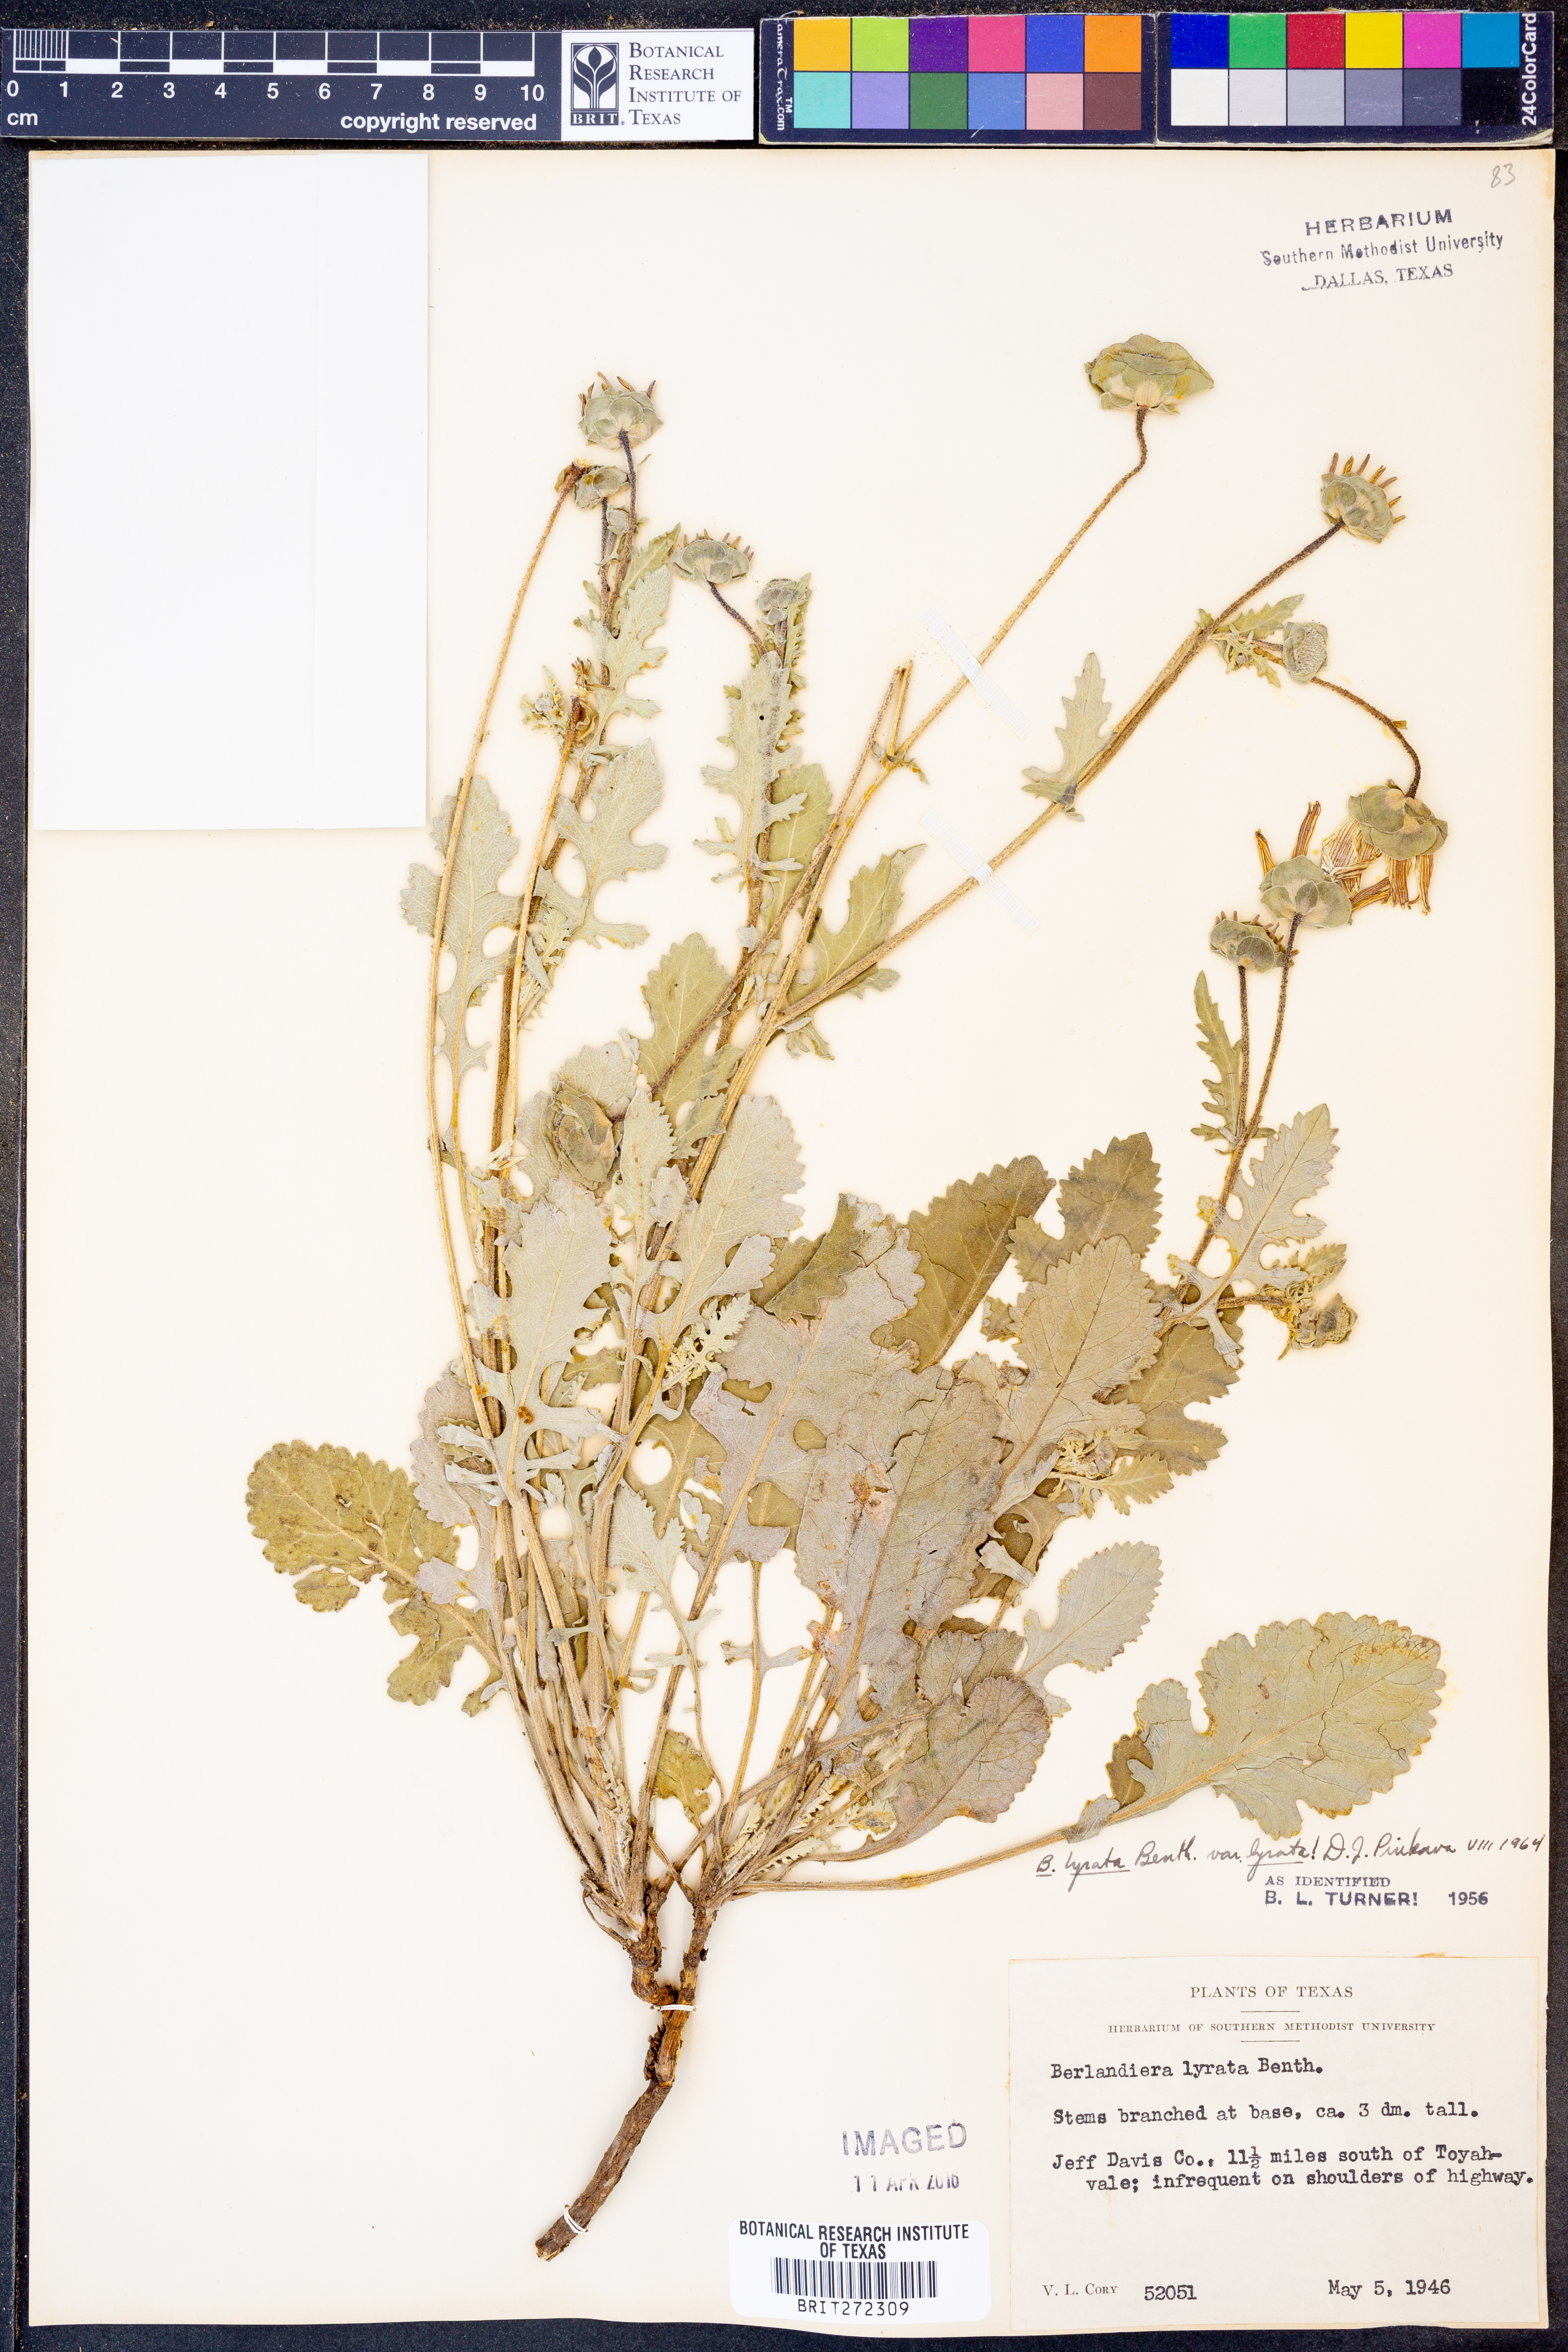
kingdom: Plantae
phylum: Tracheophyta
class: Magnoliopsida
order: Asterales
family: Asteraceae
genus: Berlandiera
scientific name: Berlandiera lyrata
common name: Chocolate-flower
